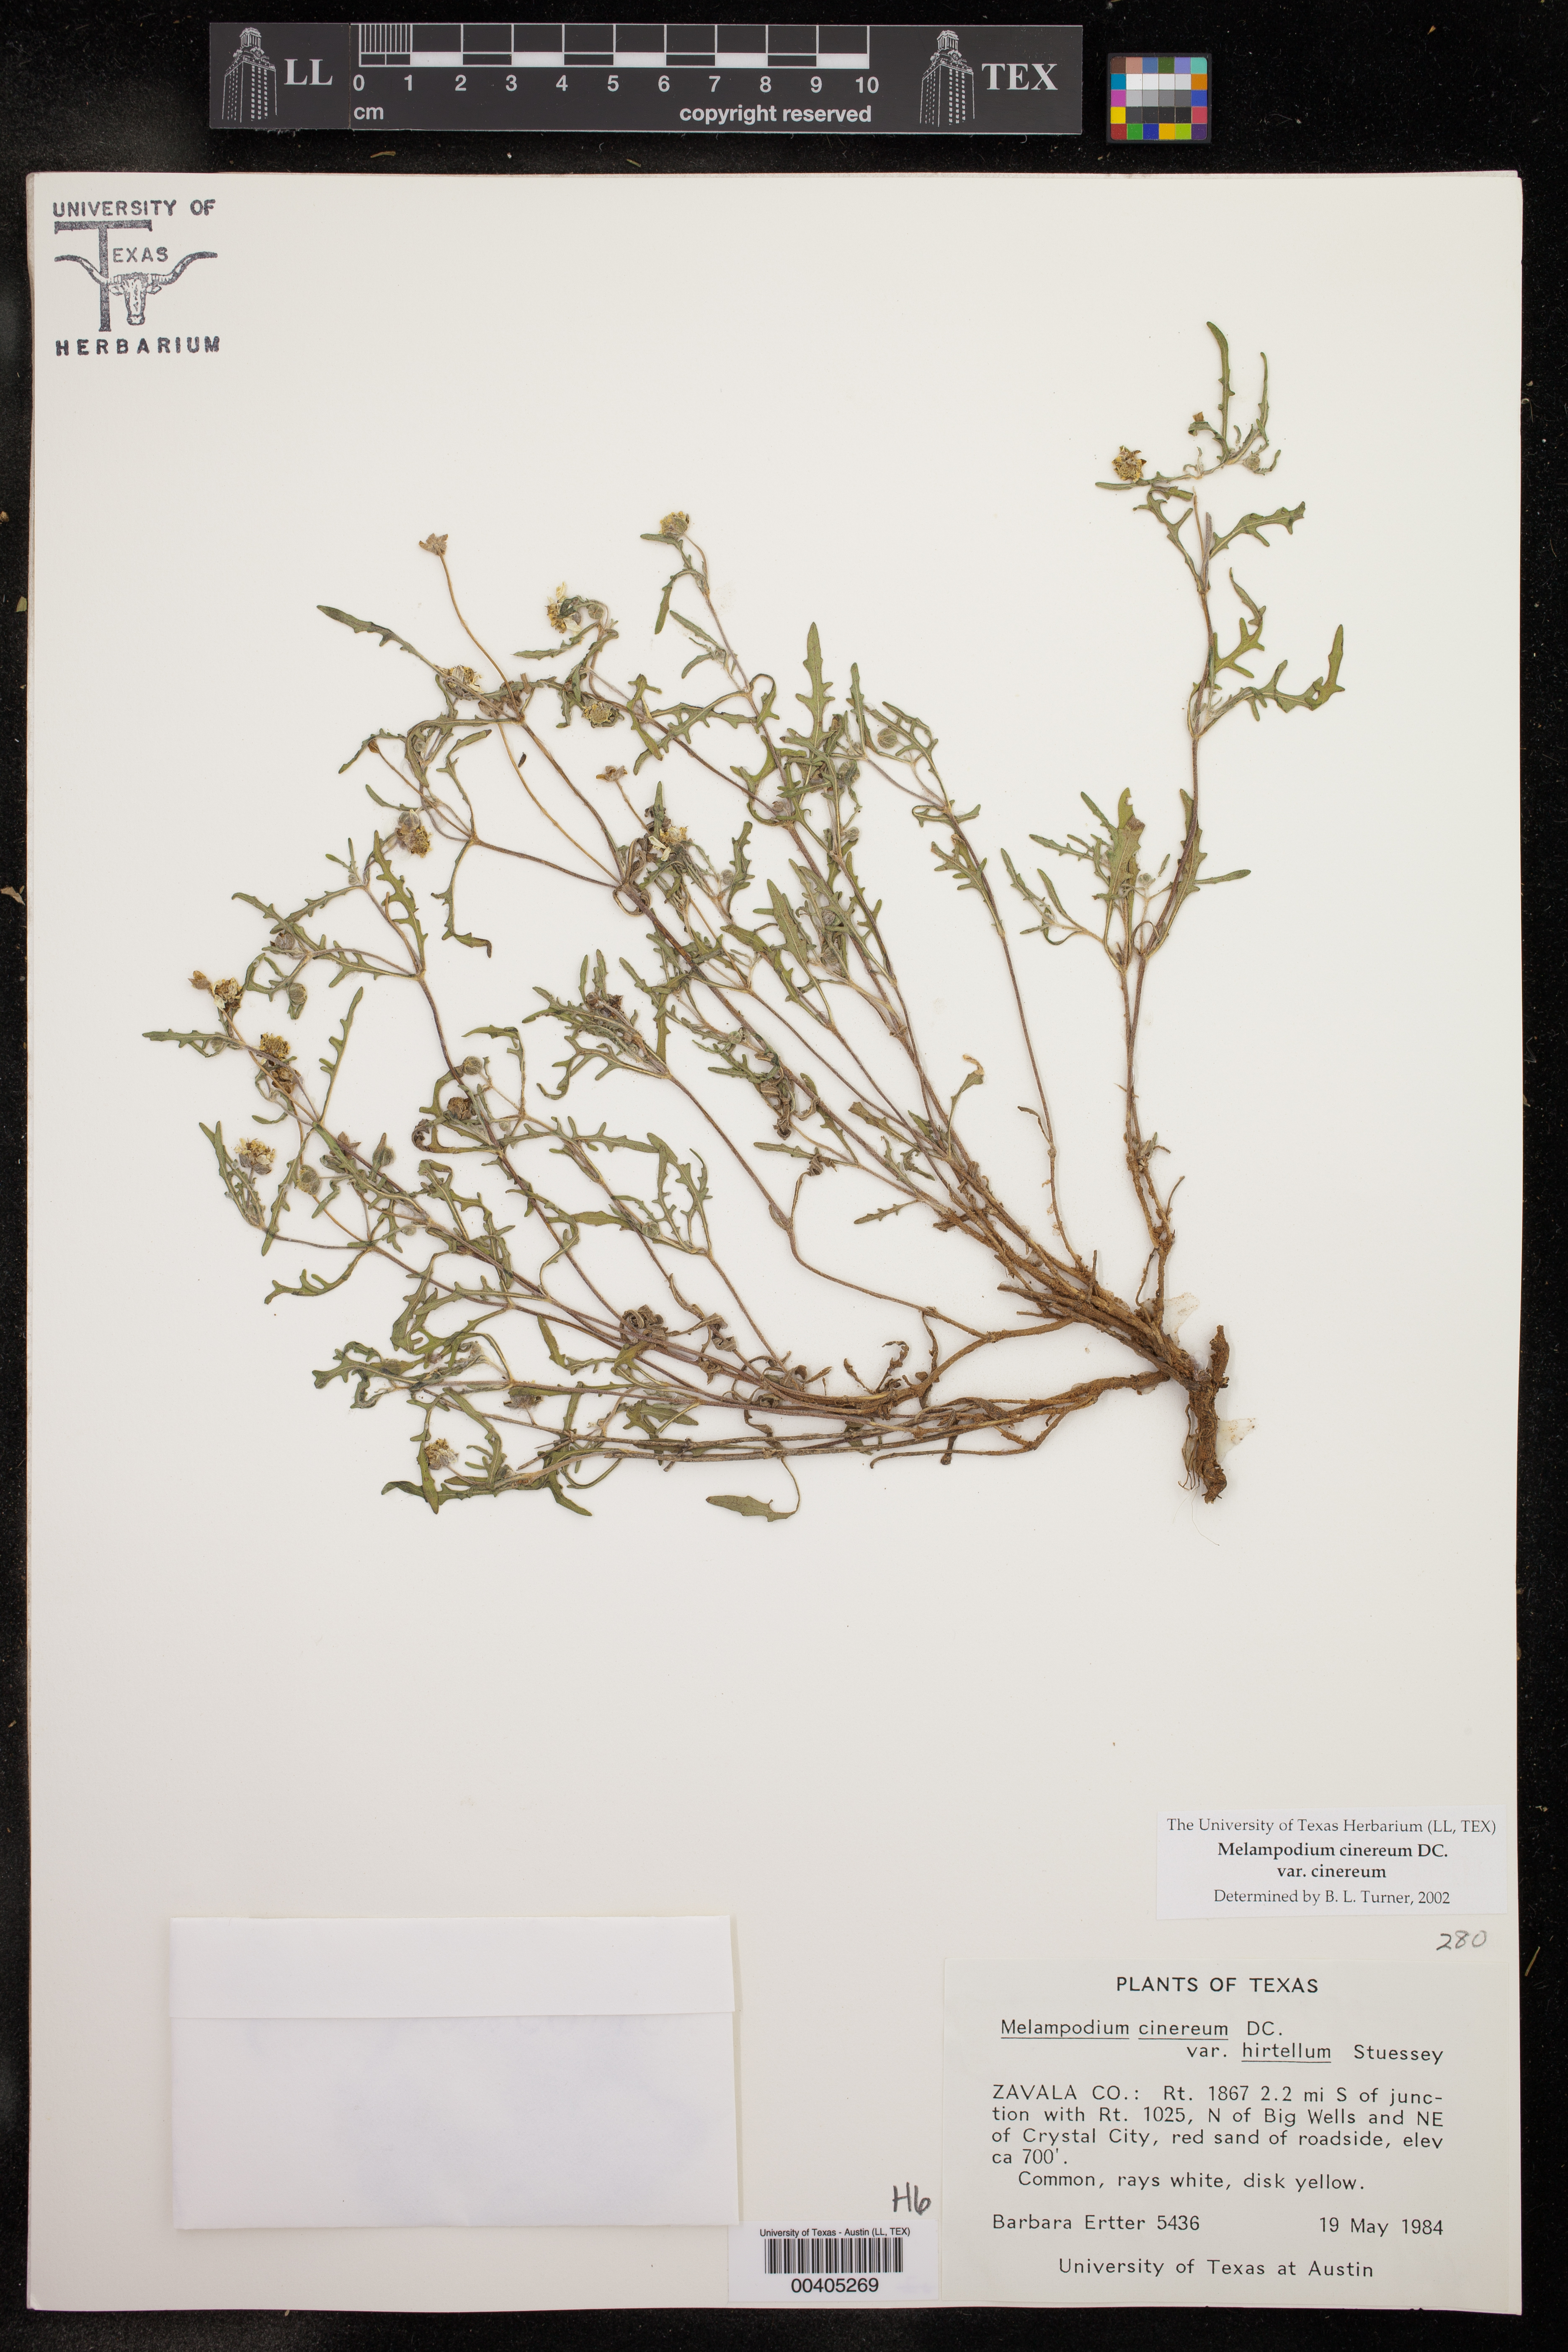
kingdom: Plantae
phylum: Tracheophyta
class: Magnoliopsida
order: Asterales
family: Asteraceae
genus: Melampodium
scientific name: Melampodium cinereum
